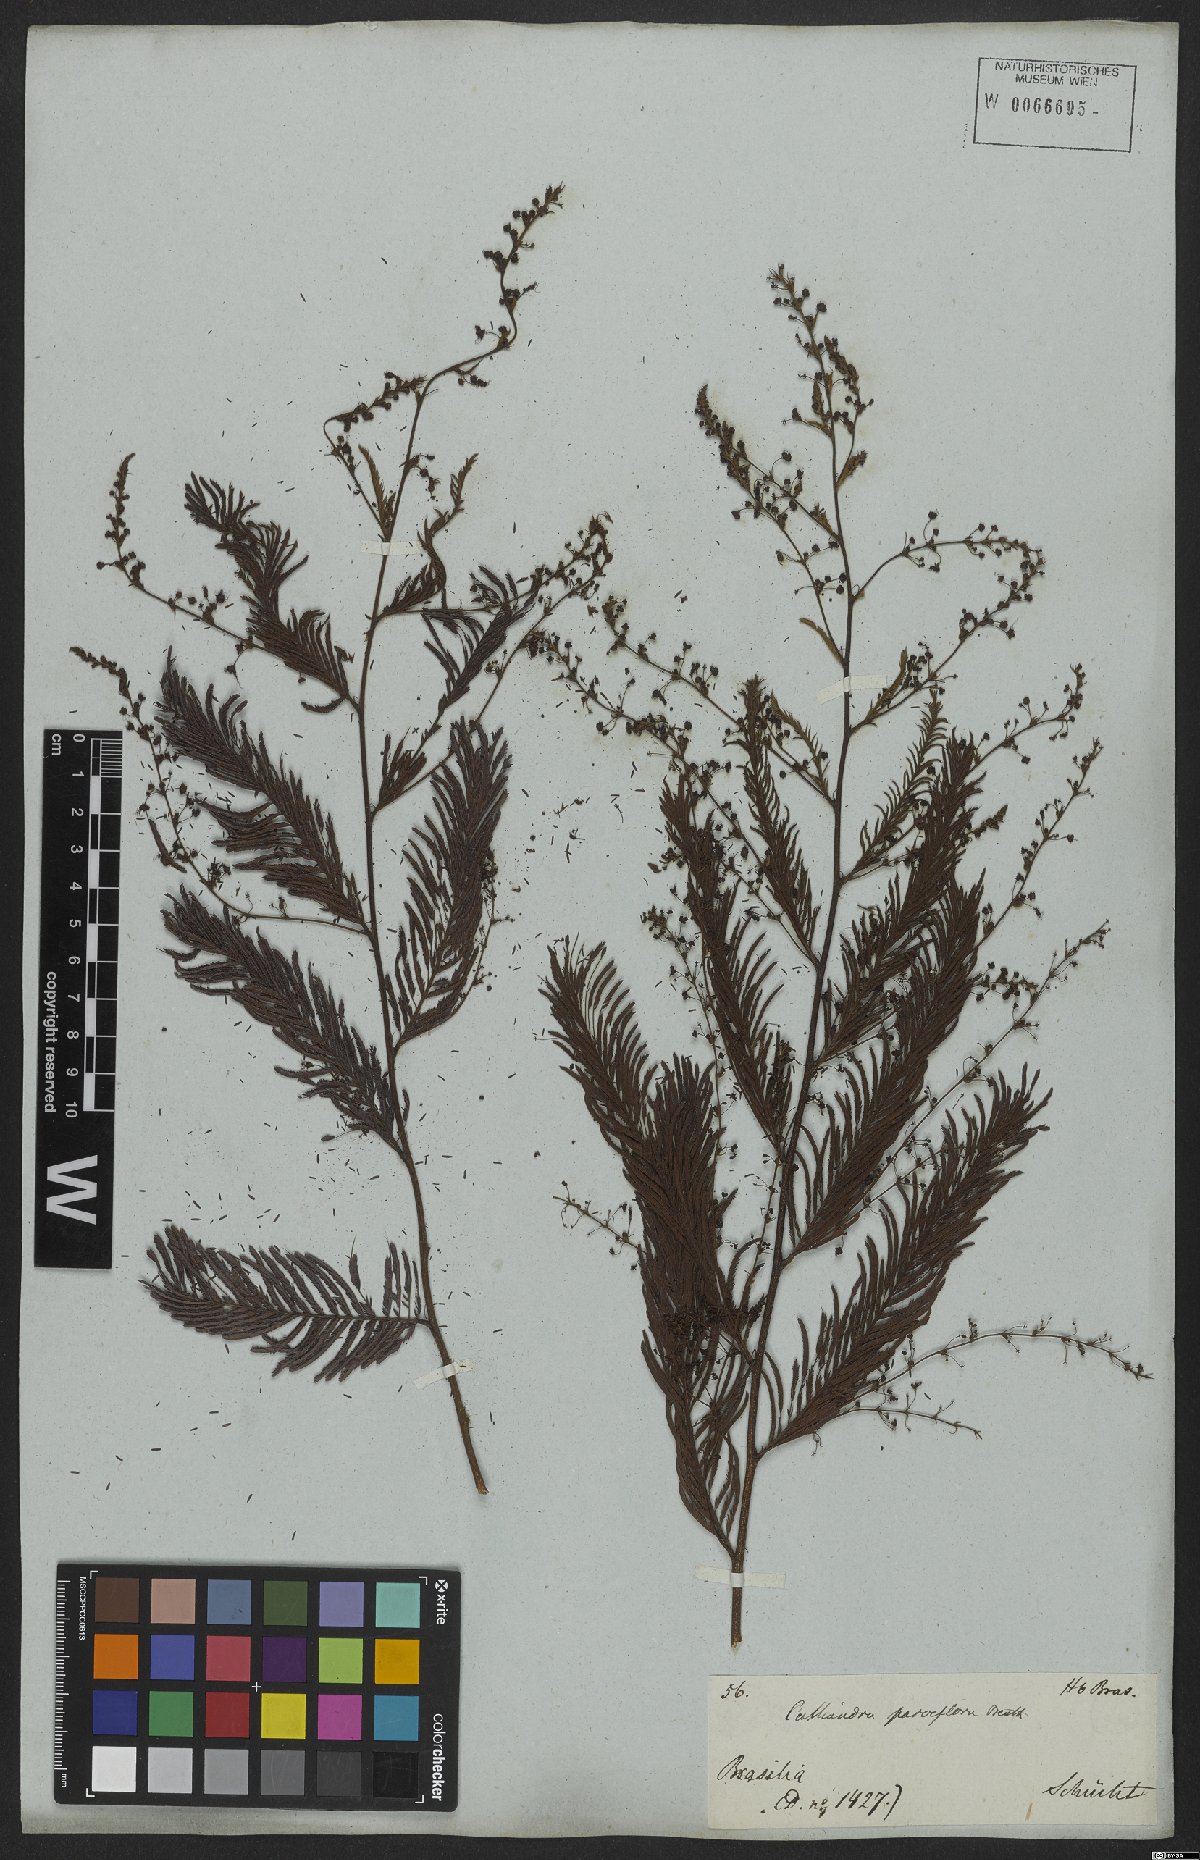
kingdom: Plantae
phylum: Tracheophyta
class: Magnoliopsida
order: Fabales
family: Fabaceae
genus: Calliandra
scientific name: Calliandra parviflora
